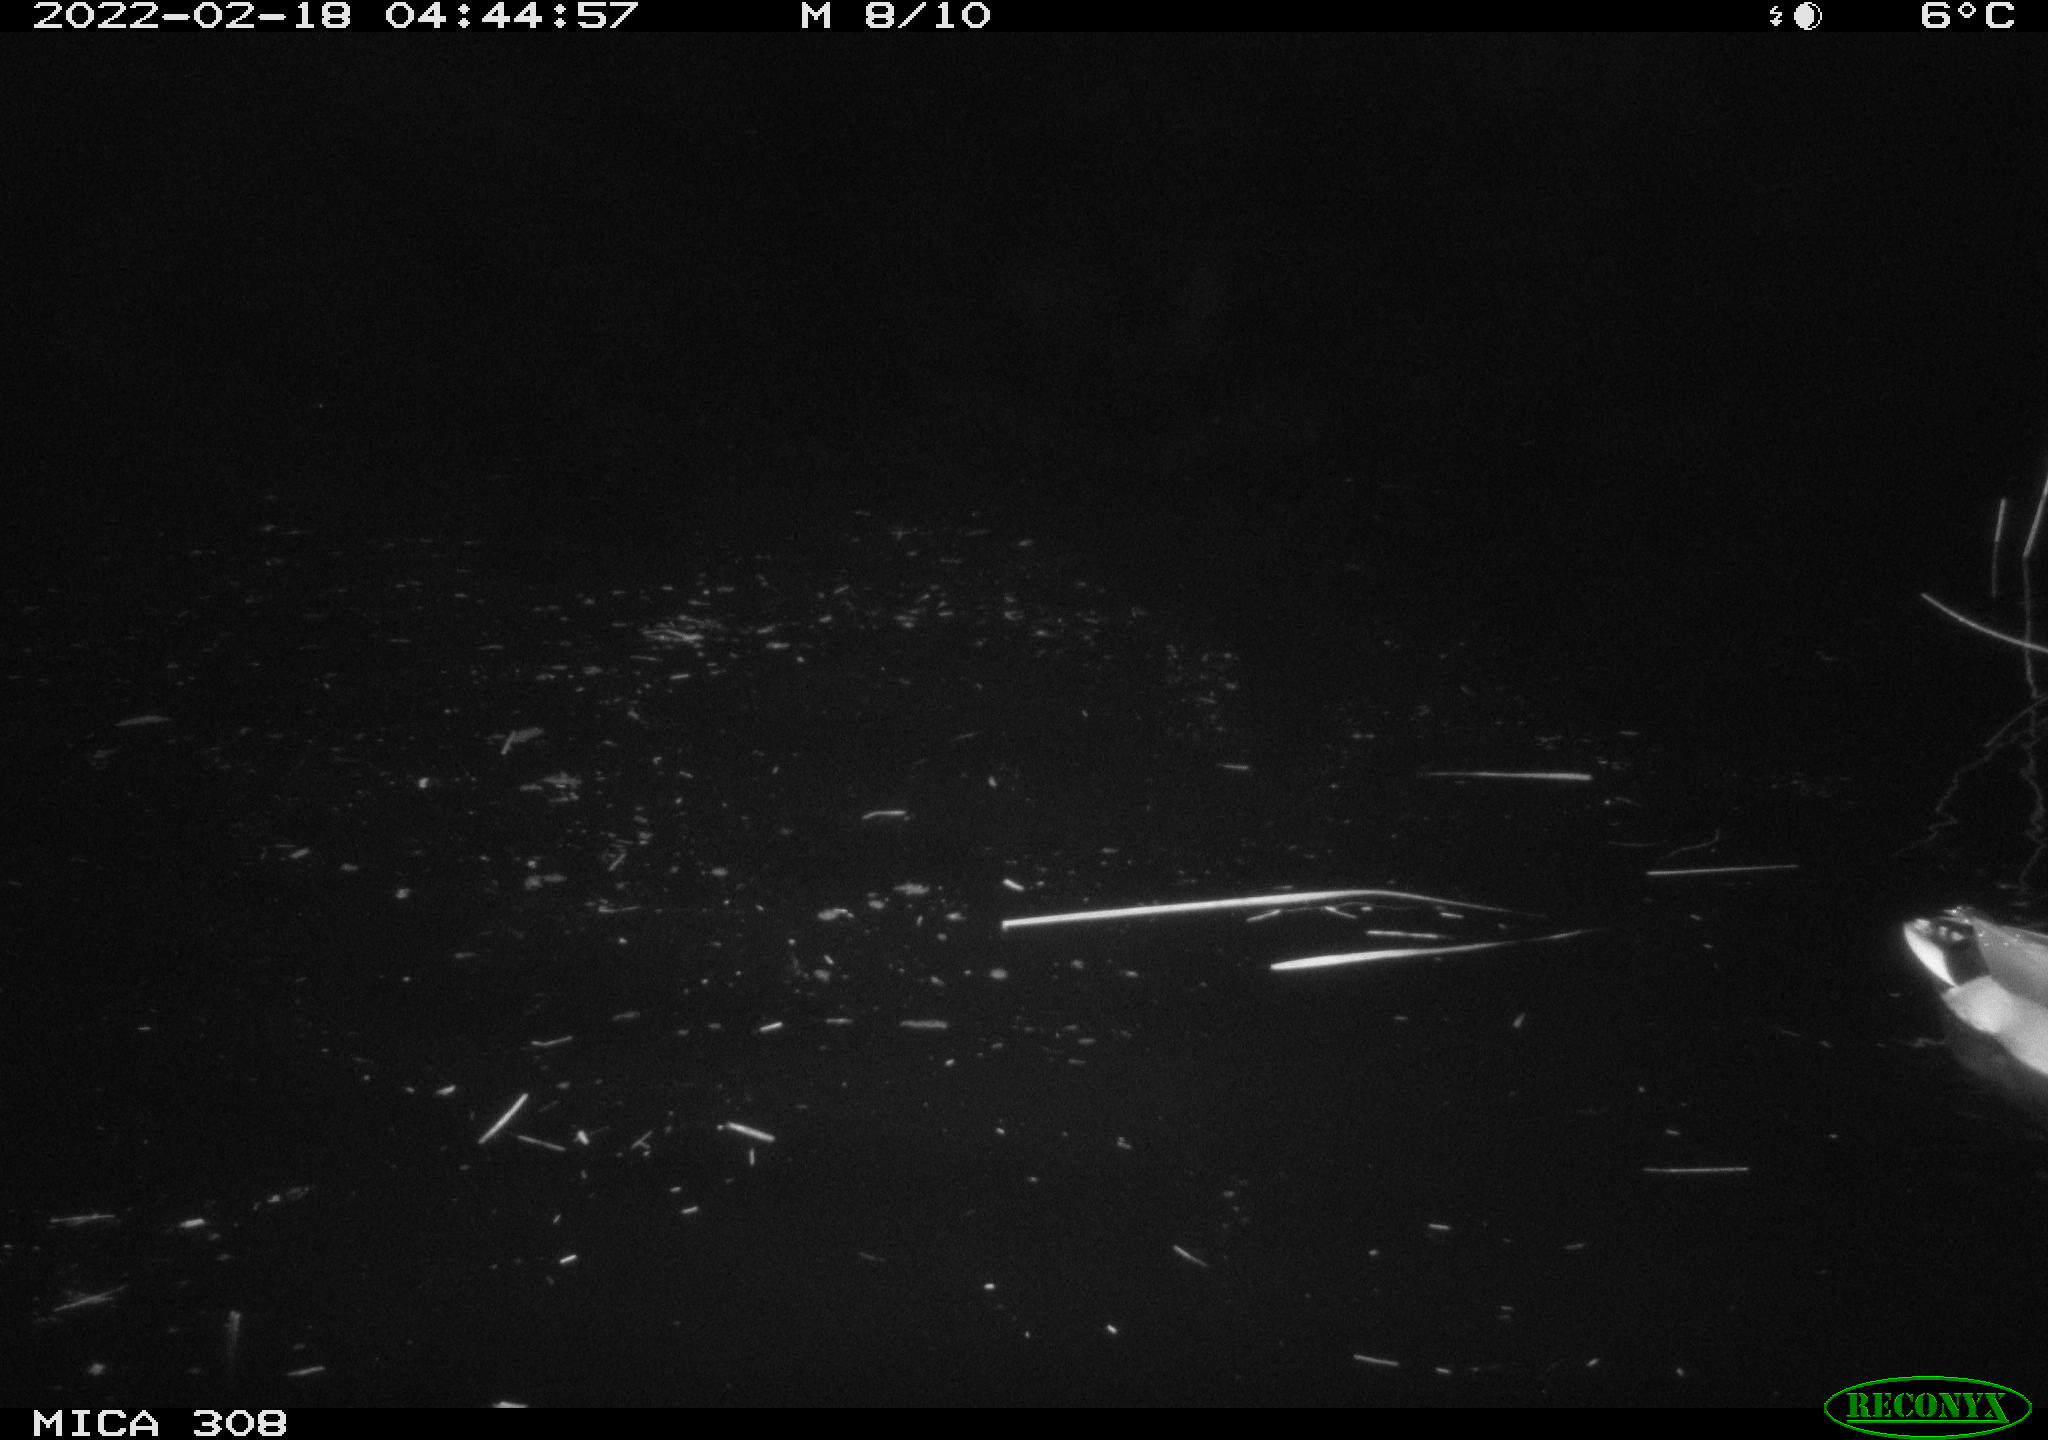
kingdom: Animalia
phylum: Chordata
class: Aves
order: Anseriformes
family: Anatidae
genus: Anas
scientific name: Anas platyrhynchos
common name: Mallard
